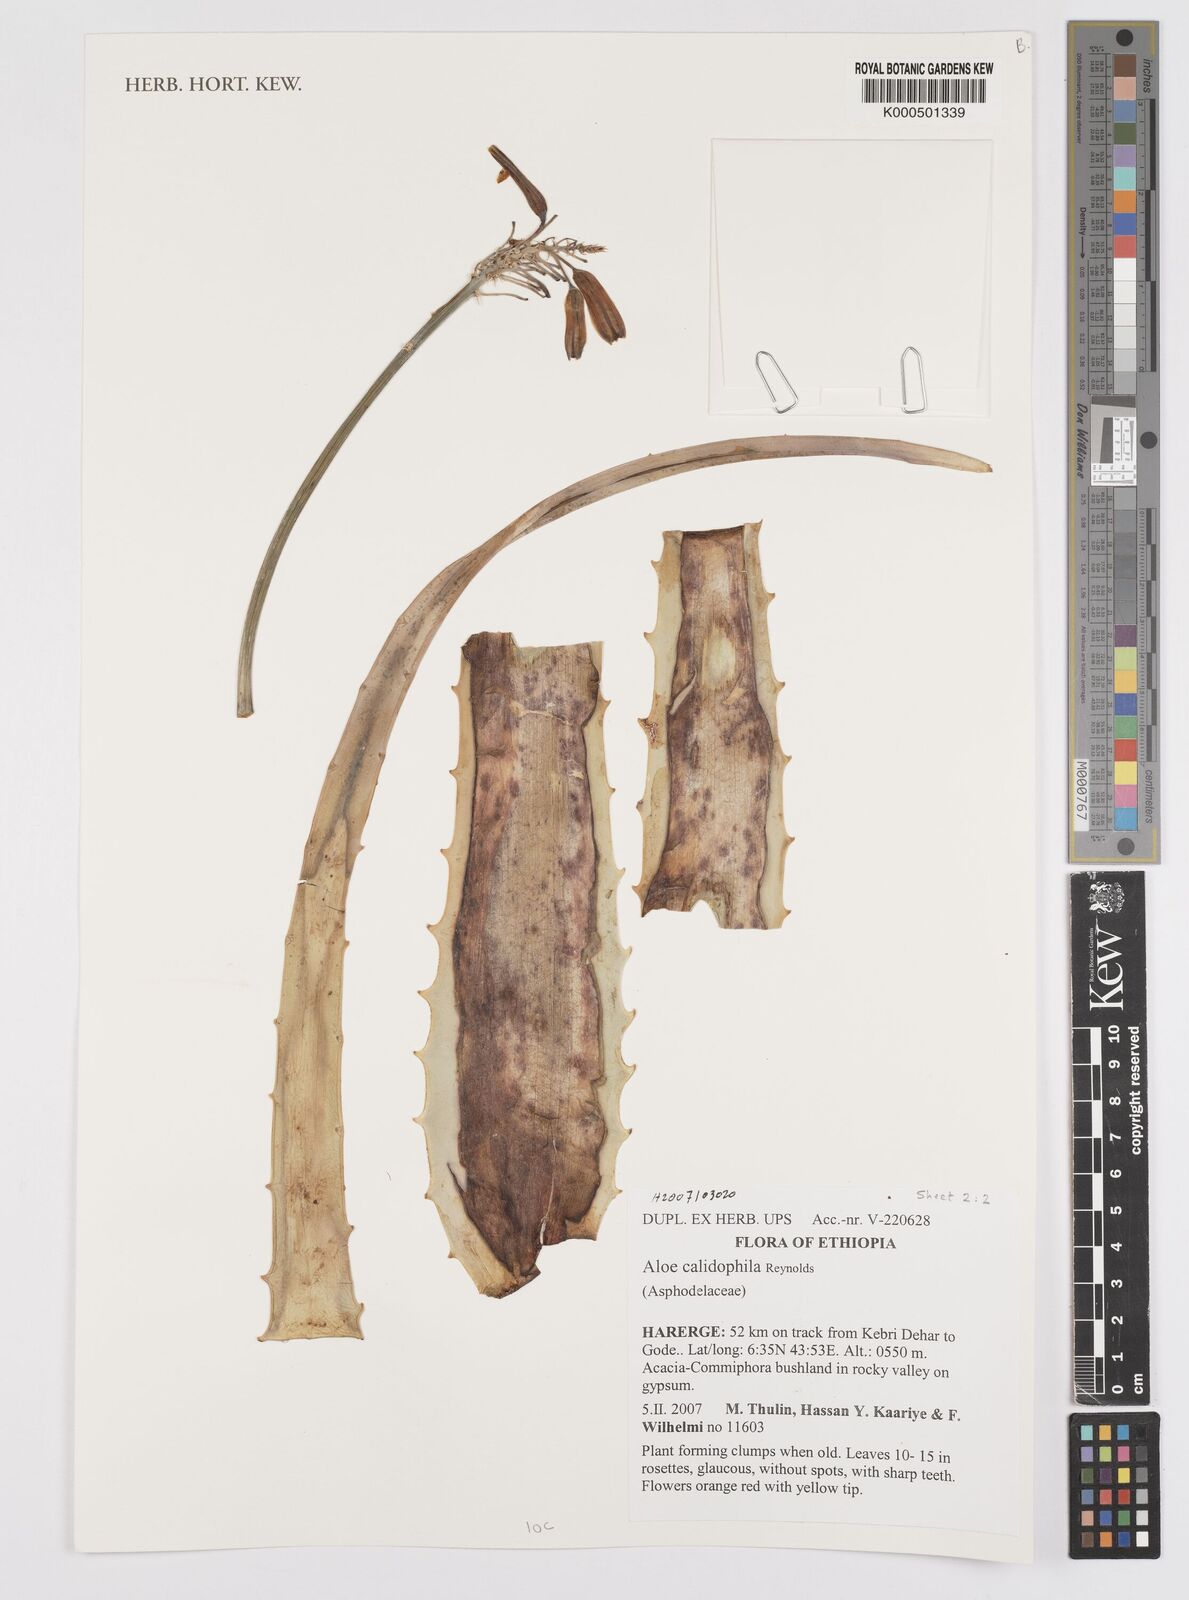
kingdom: Plantae
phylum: Tracheophyta
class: Liliopsida
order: Asparagales
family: Asphodelaceae
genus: Aloe
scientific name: Aloe calidophila
